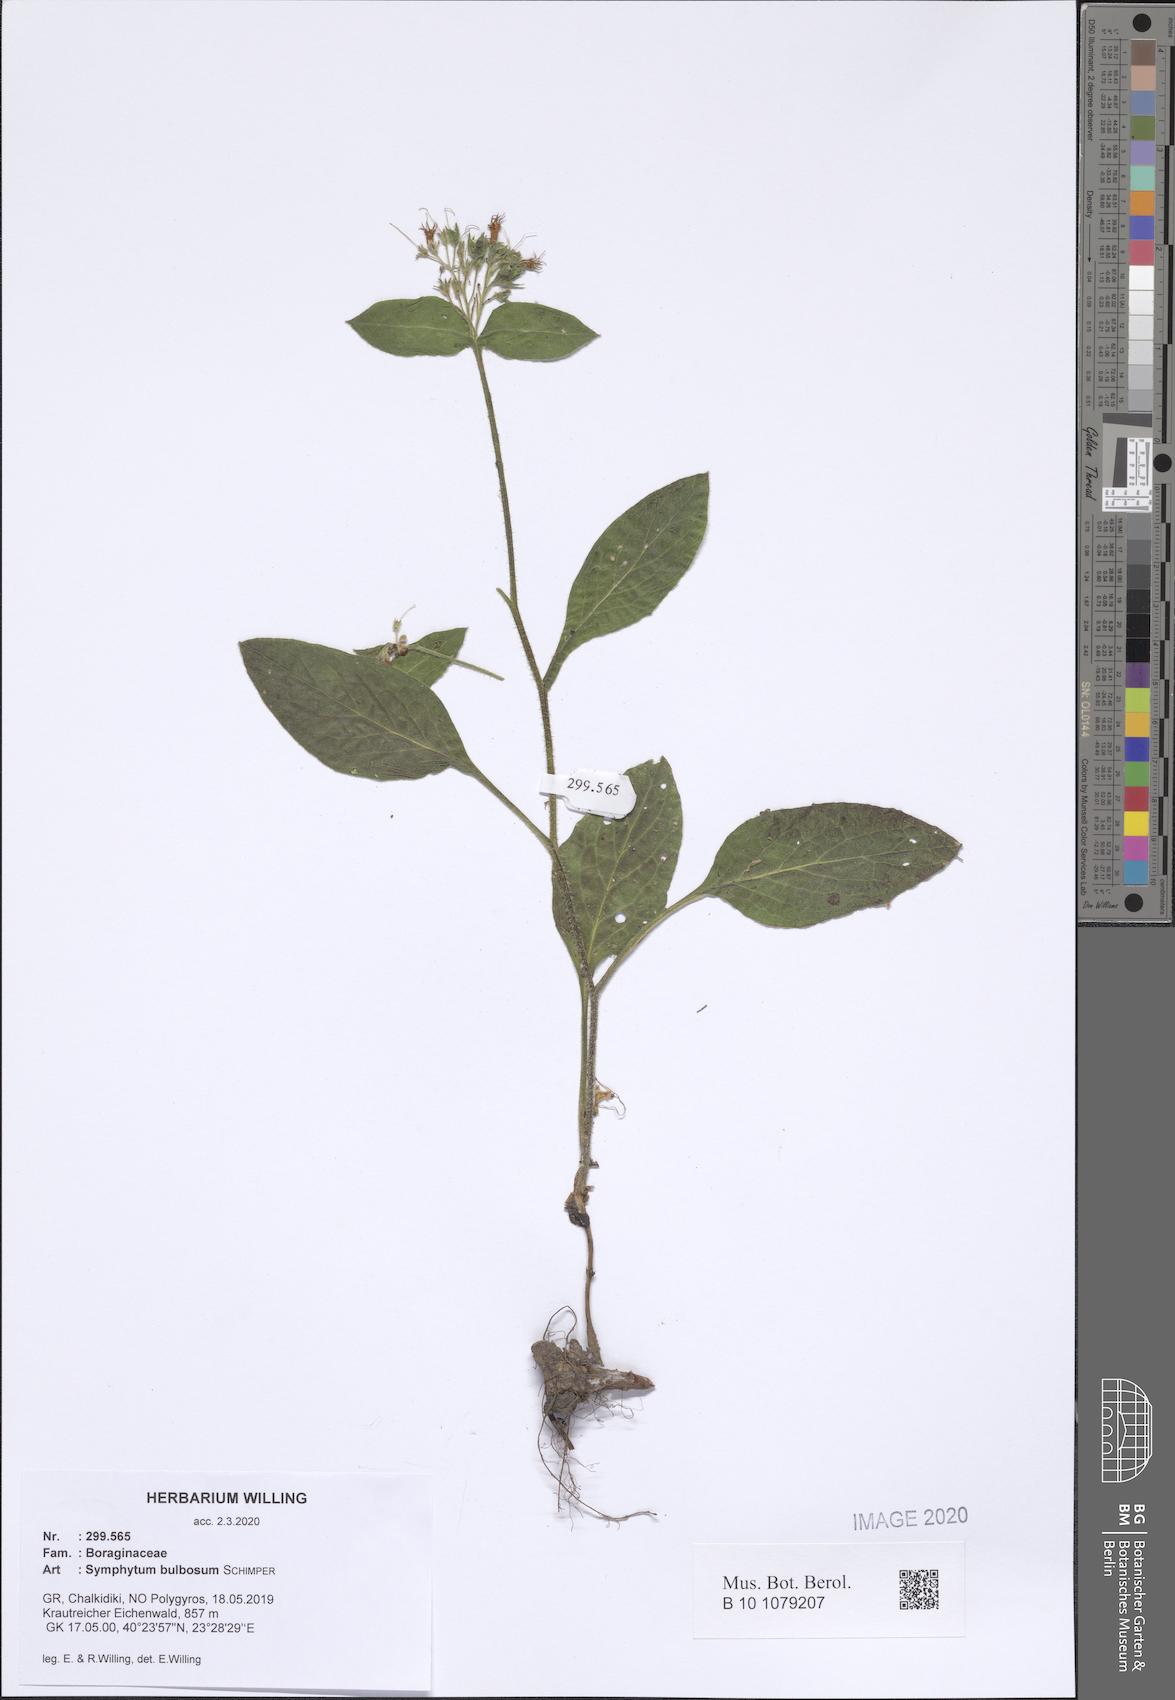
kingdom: Plantae
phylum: Tracheophyta
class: Magnoliopsida
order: Boraginales
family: Boraginaceae
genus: Symphytum
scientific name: Symphytum bulbosum
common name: Bulbous comfrey
